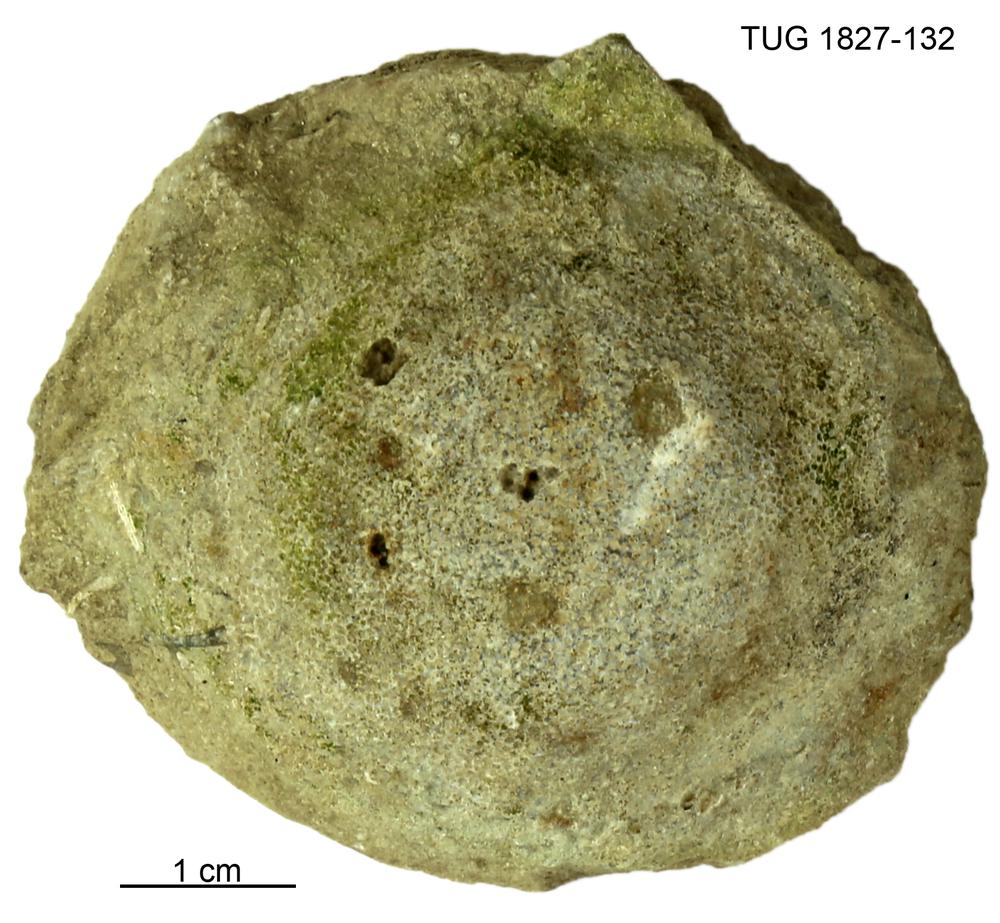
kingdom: Animalia
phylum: Bryozoa
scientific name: Bryozoa
